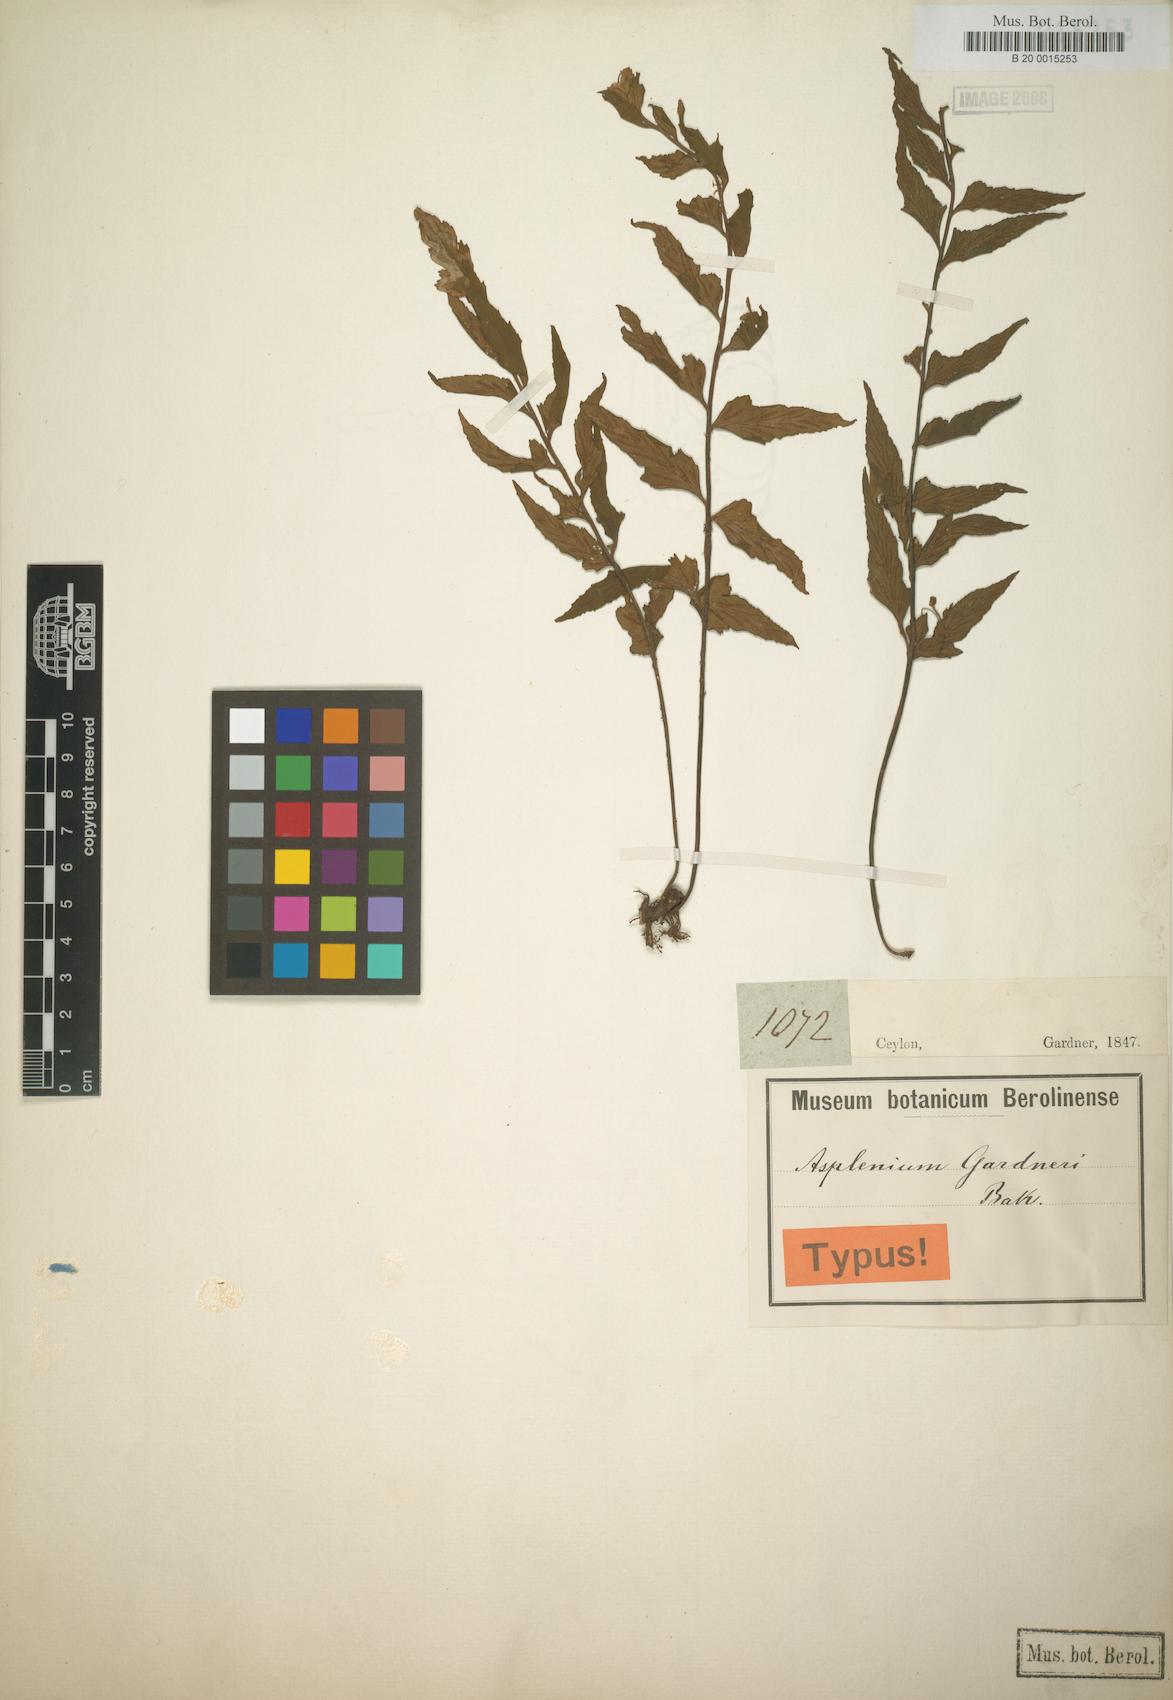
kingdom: Plantae
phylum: Tracheophyta
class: Polypodiopsida
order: Polypodiales
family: Aspleniaceae
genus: Asplenium
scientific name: Asplenium gardneri
